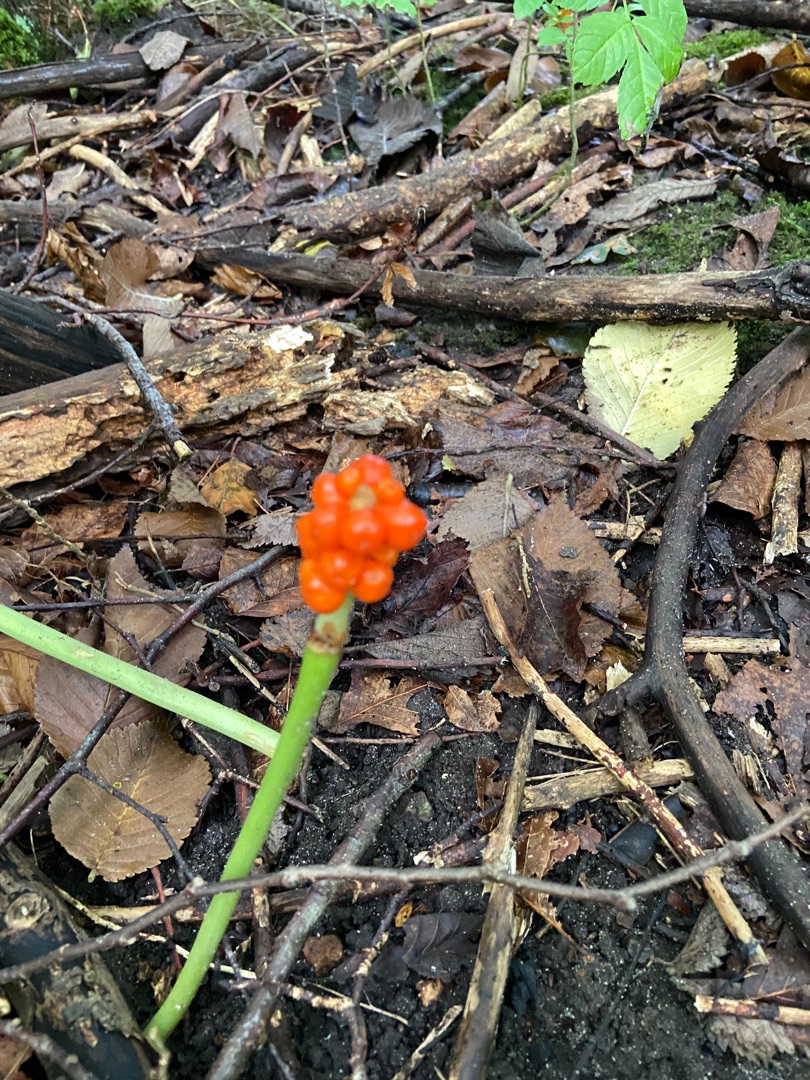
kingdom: Plantae
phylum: Tracheophyta
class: Liliopsida
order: Alismatales
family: Araceae
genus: Arum
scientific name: Arum
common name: Arumslægten
